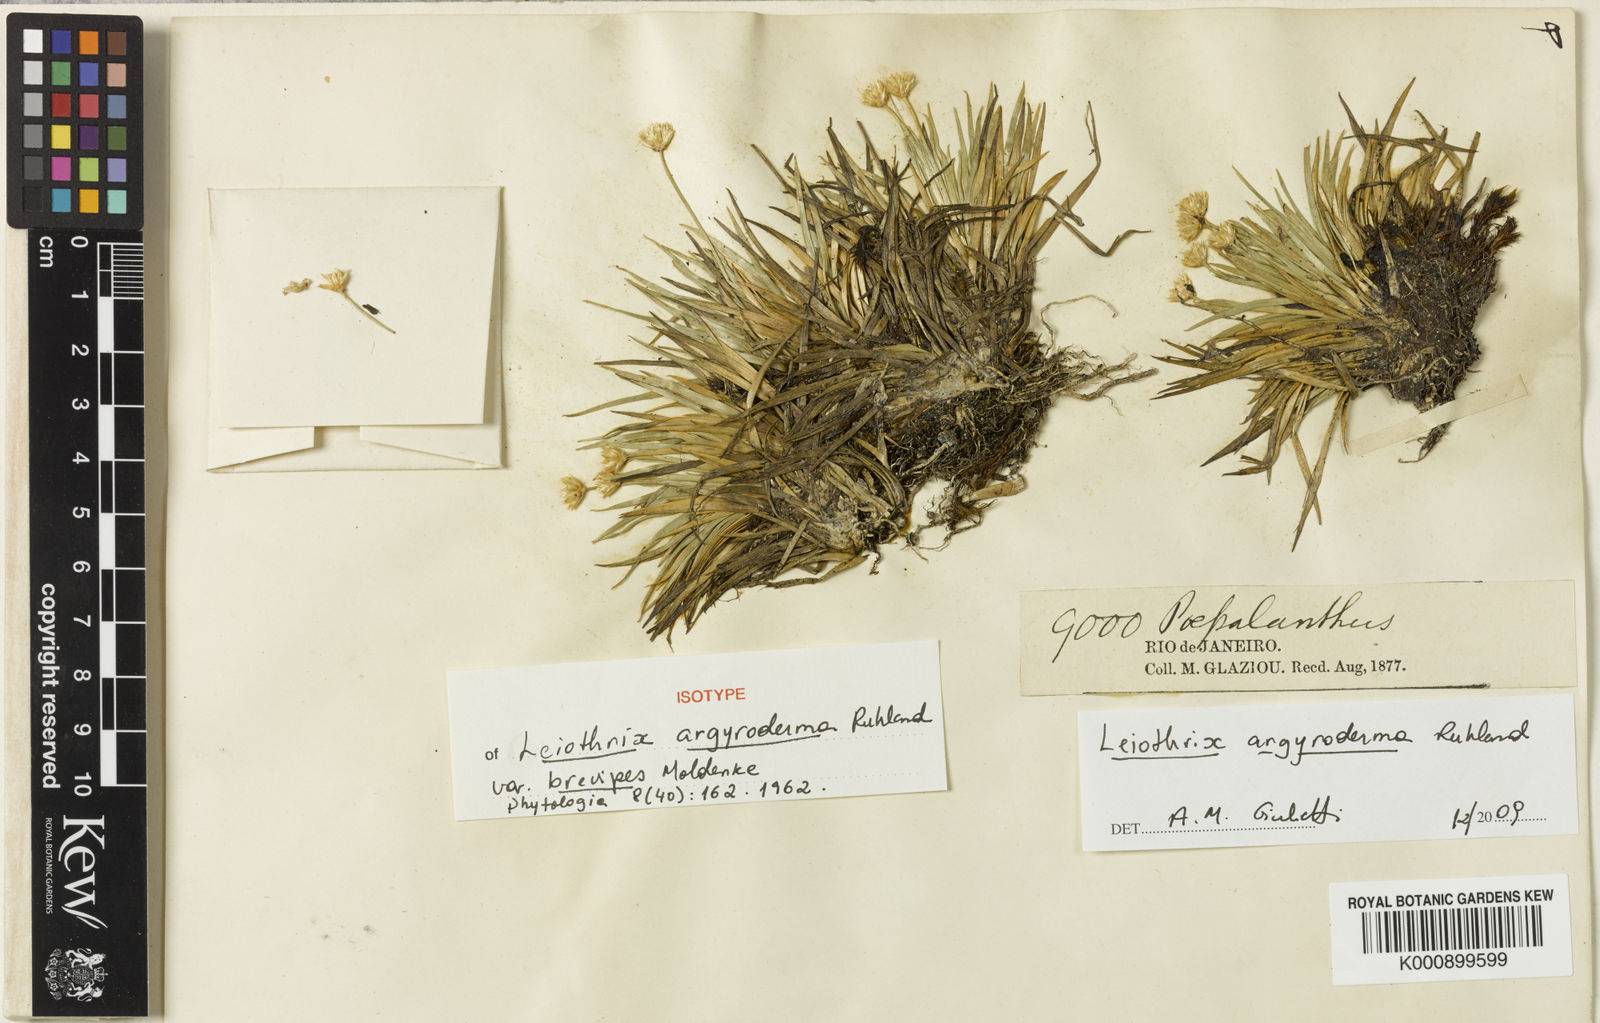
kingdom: Plantae
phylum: Tracheophyta
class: Liliopsida
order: Poales
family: Eriocaulaceae
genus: Leiothrix
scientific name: Leiothrix argyroderma
